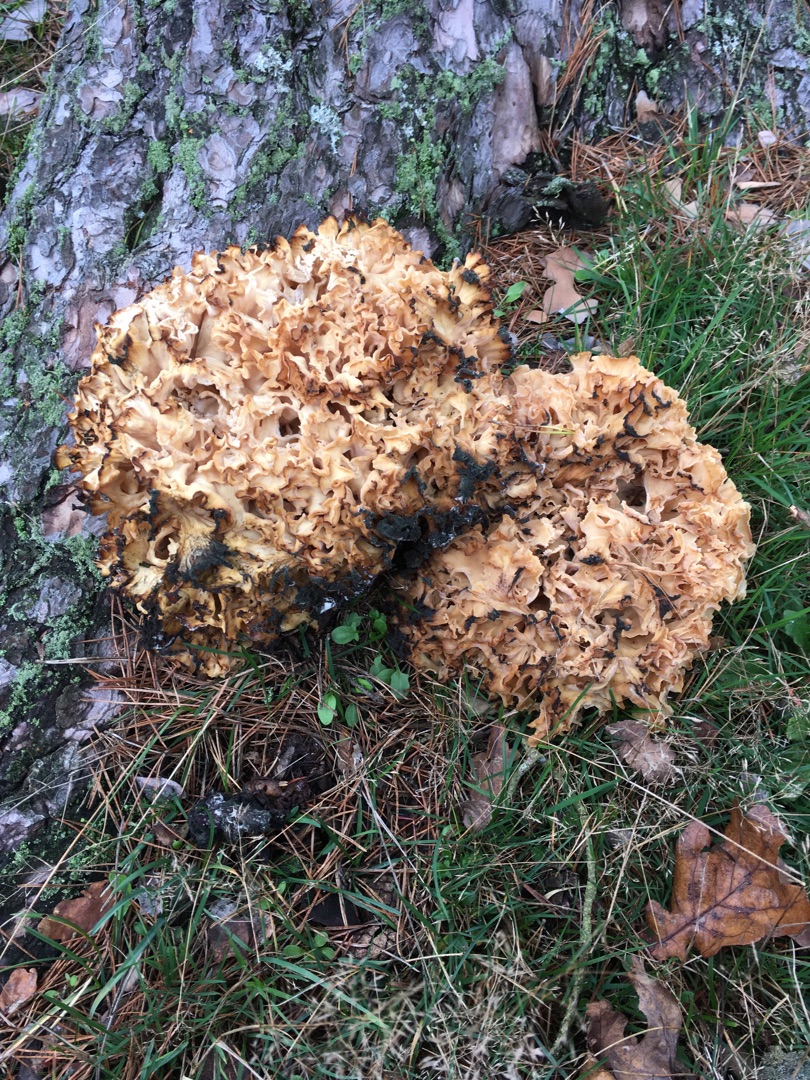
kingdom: Fungi
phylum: Basidiomycota
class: Agaricomycetes
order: Polyporales
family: Sparassidaceae
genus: Sparassis
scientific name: Sparassis crispa
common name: Kruset blomkålssvamp
